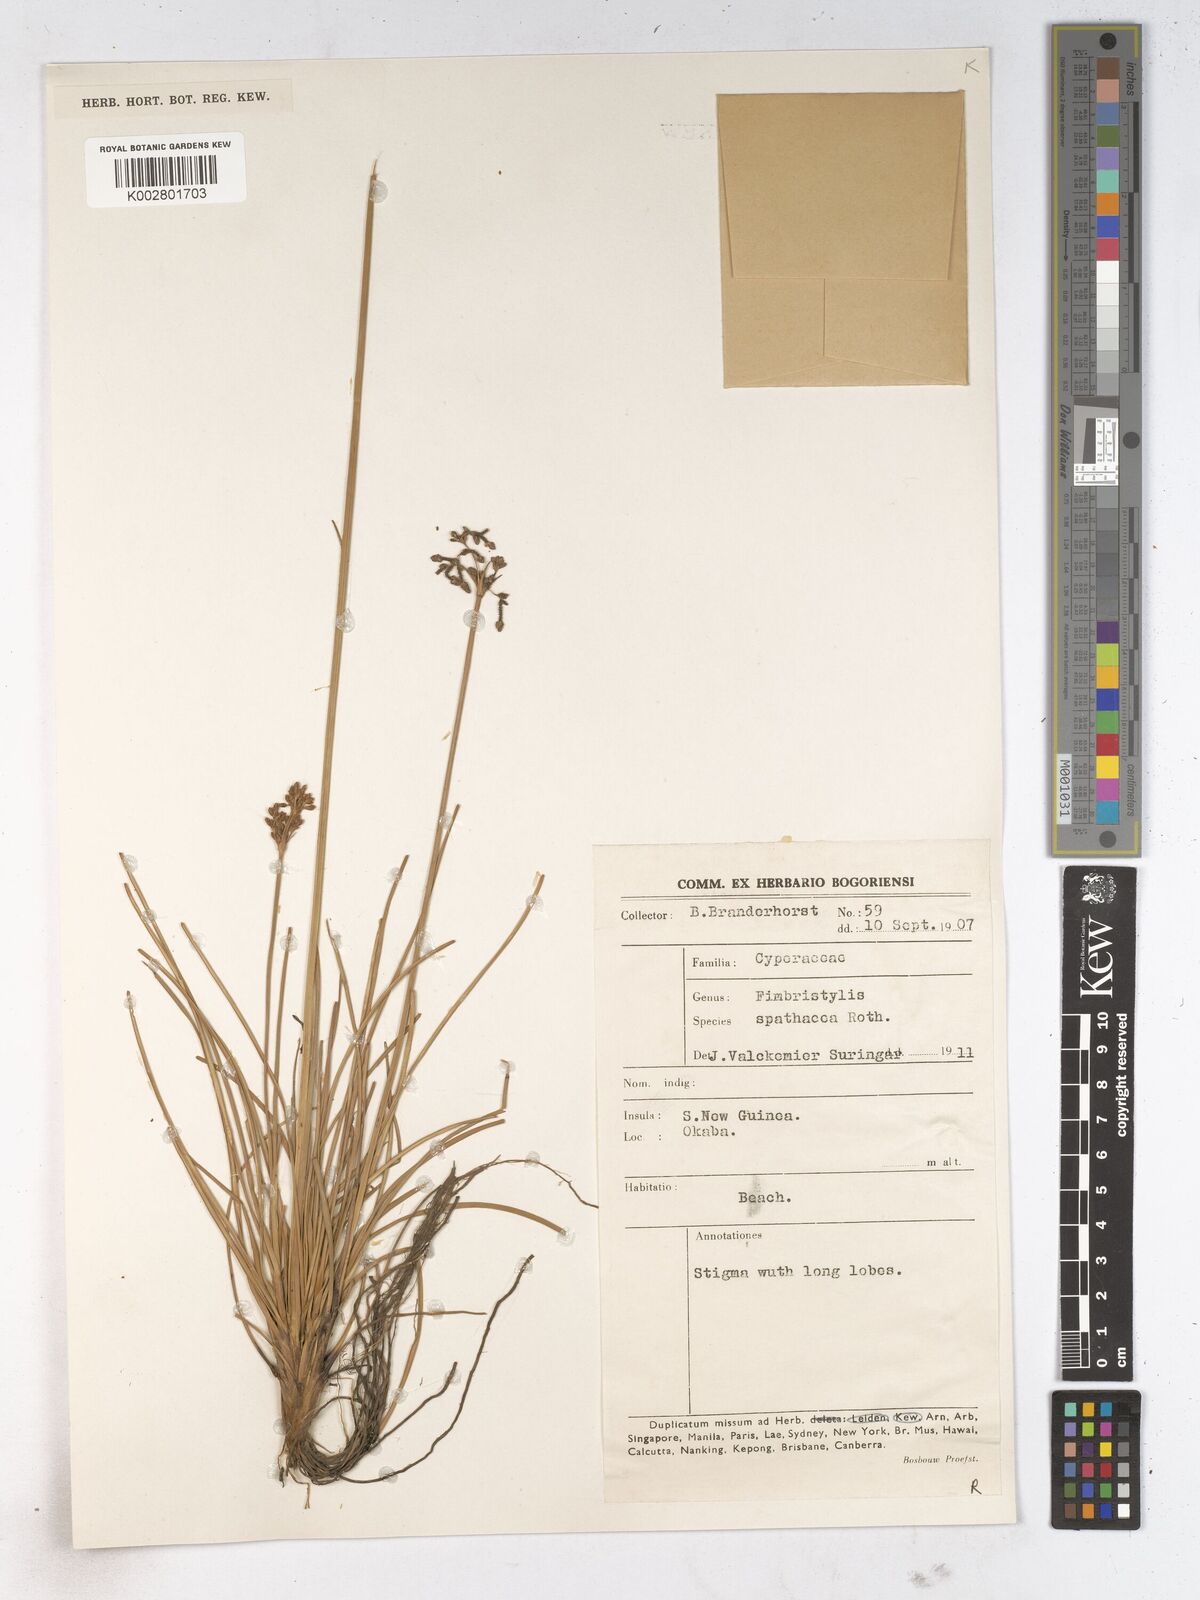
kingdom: Plantae
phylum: Tracheophyta
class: Liliopsida
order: Poales
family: Cyperaceae
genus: Fimbristylis
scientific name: Fimbristylis cymosa
